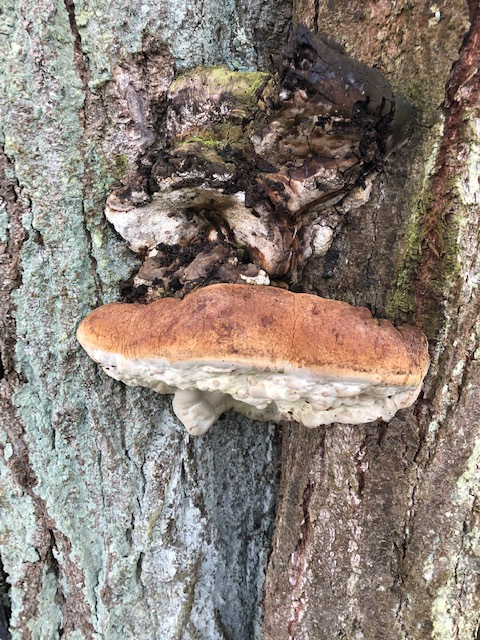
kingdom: Fungi
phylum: Basidiomycota
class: Agaricomycetes
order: Polyporales
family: Polyporaceae
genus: Ganoderma
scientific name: Ganoderma adspersum
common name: grov lakporesvamp
